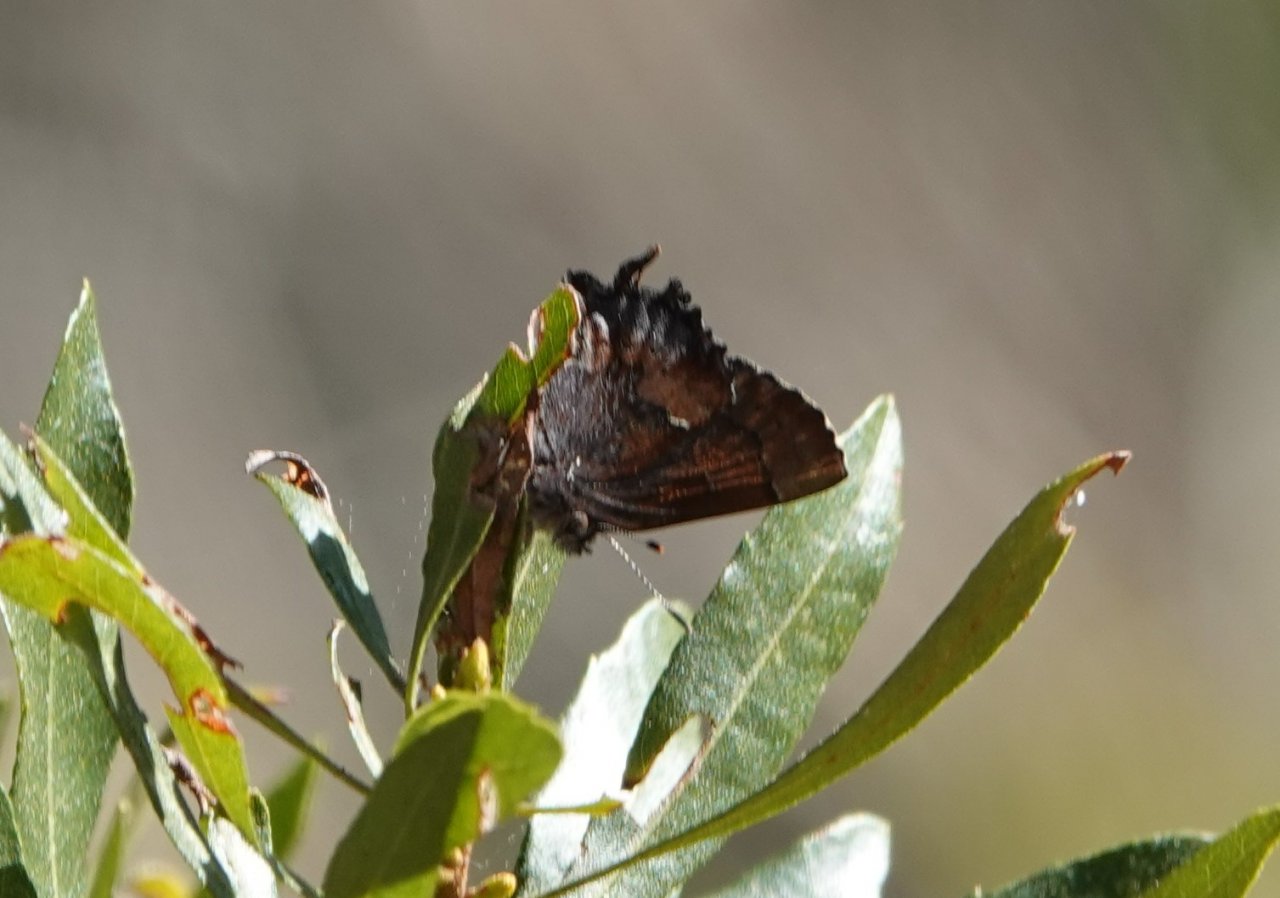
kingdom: Animalia
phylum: Arthropoda
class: Insecta
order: Lepidoptera
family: Lycaenidae
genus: Incisalia
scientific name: Incisalia henrici
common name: Henry's Elfin
